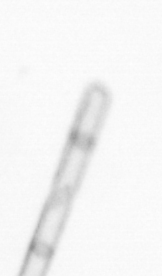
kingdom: Chromista
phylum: Ochrophyta
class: Bacillariophyceae
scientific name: Bacillariophyceae
